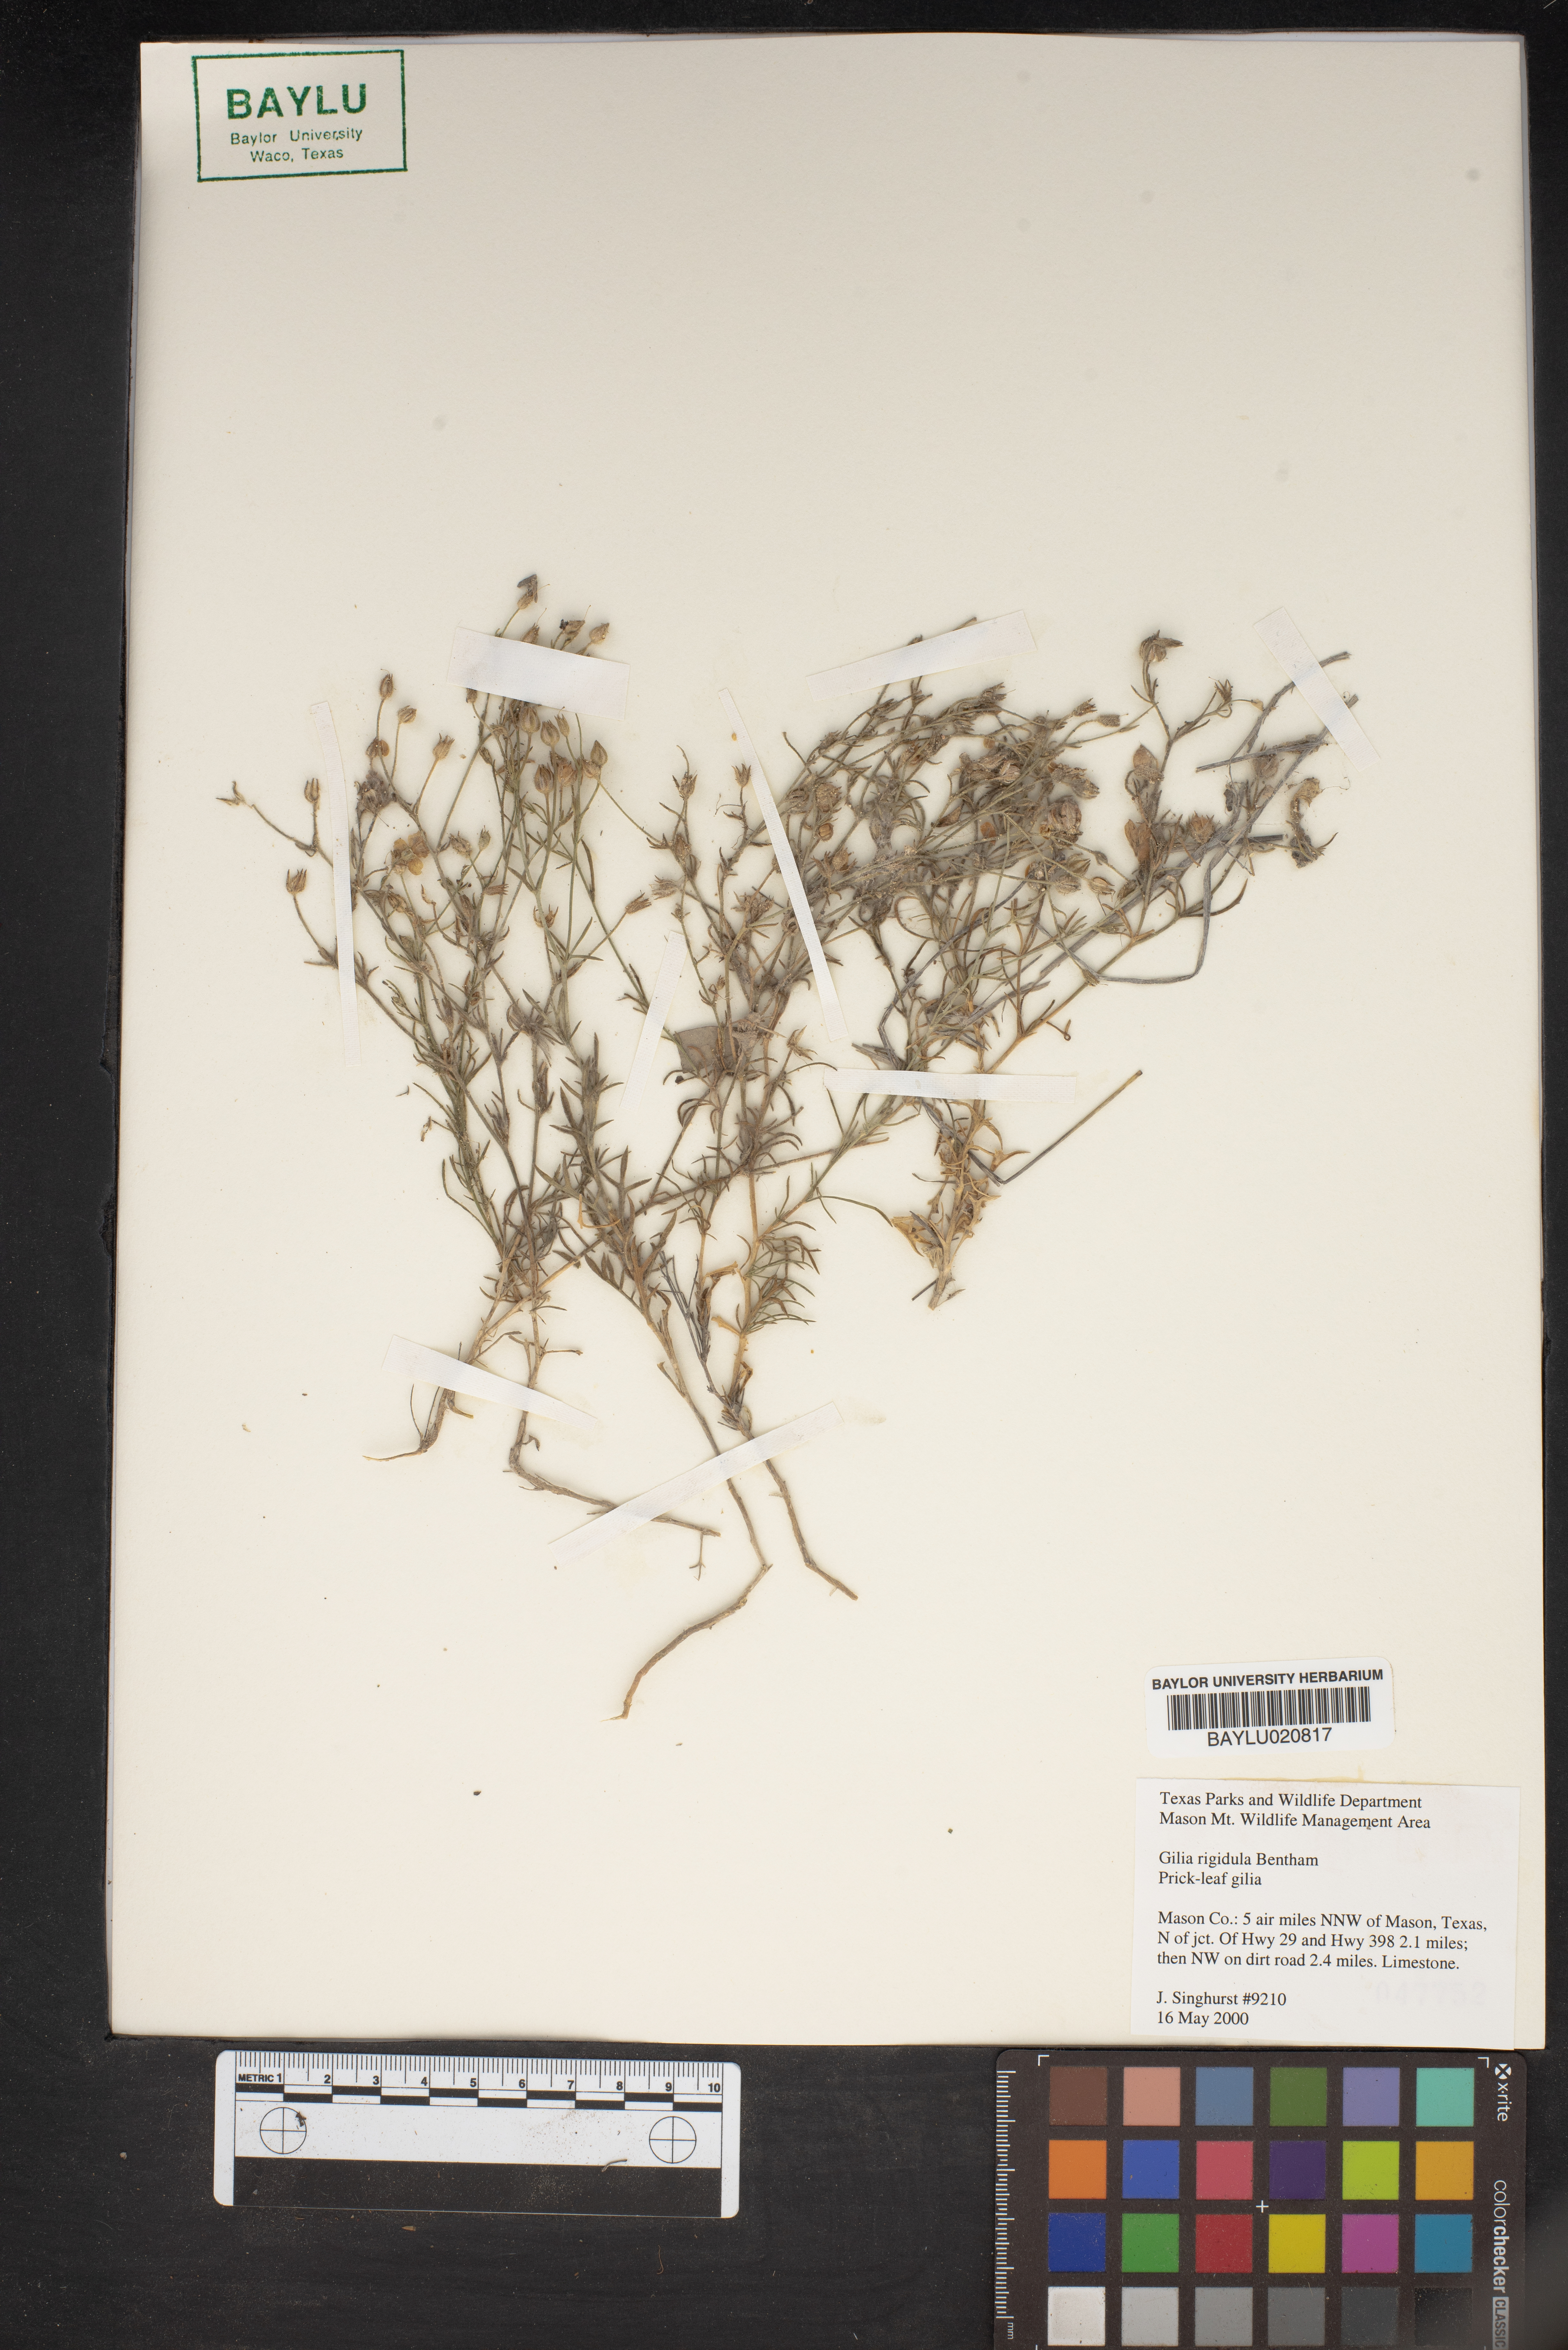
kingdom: Plantae
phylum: Tracheophyta
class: Magnoliopsida
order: Ericales
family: Polemoniaceae
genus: Giliastrum
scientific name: Giliastrum rigidulum
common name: Bluebowls
